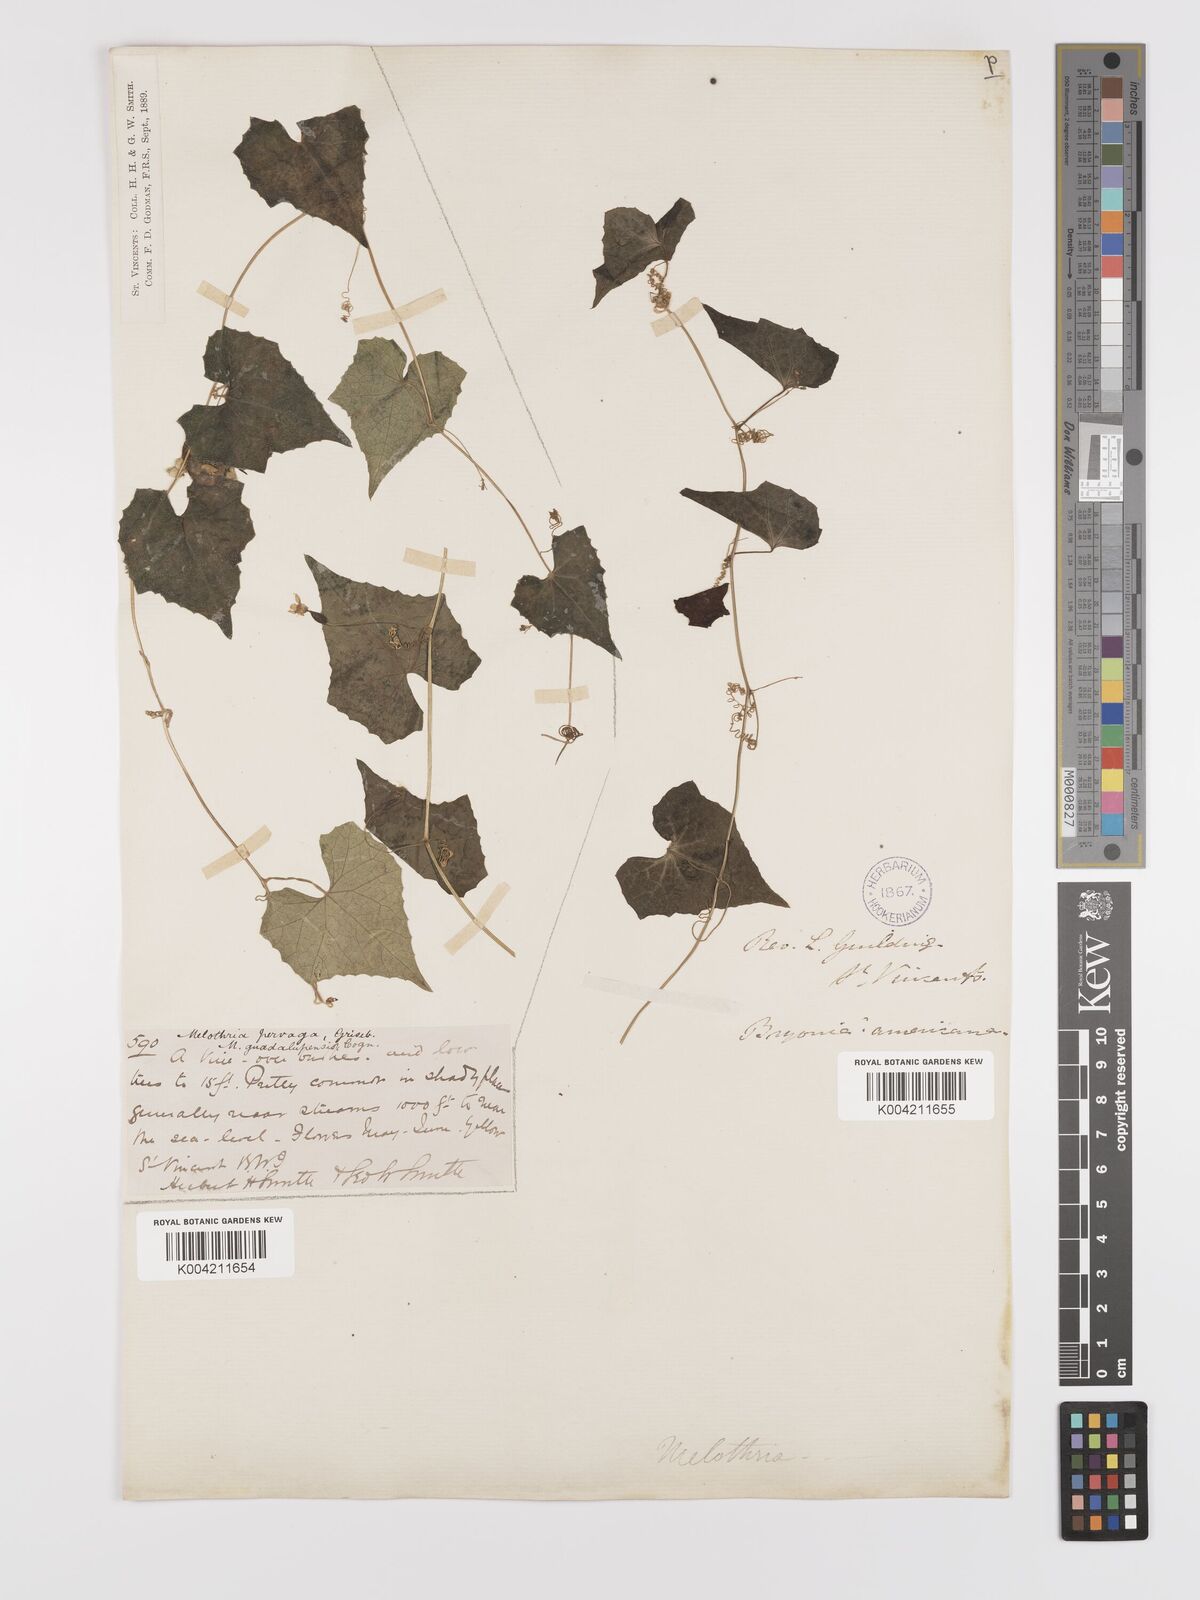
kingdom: Plantae
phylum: Tracheophyta
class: Magnoliopsida
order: Cucurbitales
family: Cucurbitaceae
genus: Melothria
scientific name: Melothria
